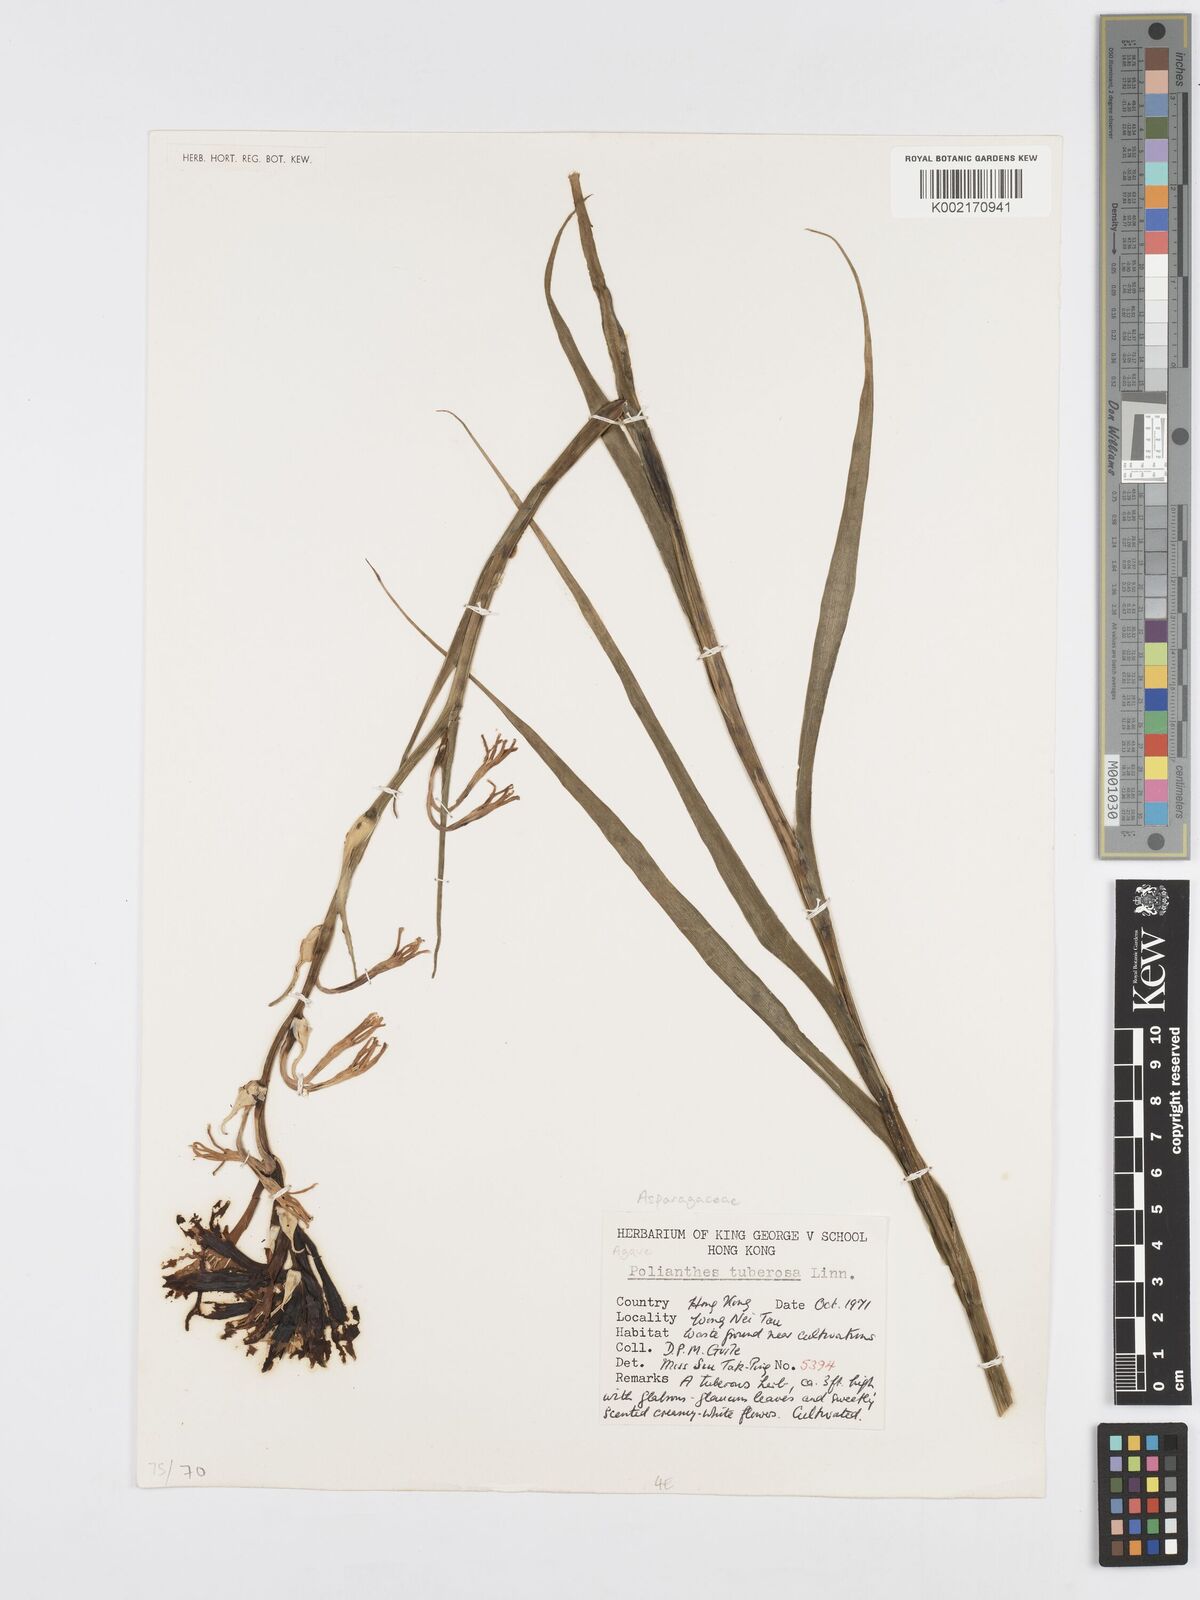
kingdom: Plantae
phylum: Tracheophyta
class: Liliopsida
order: Asparagales
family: Asparagaceae
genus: Agave
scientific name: Agave amica
